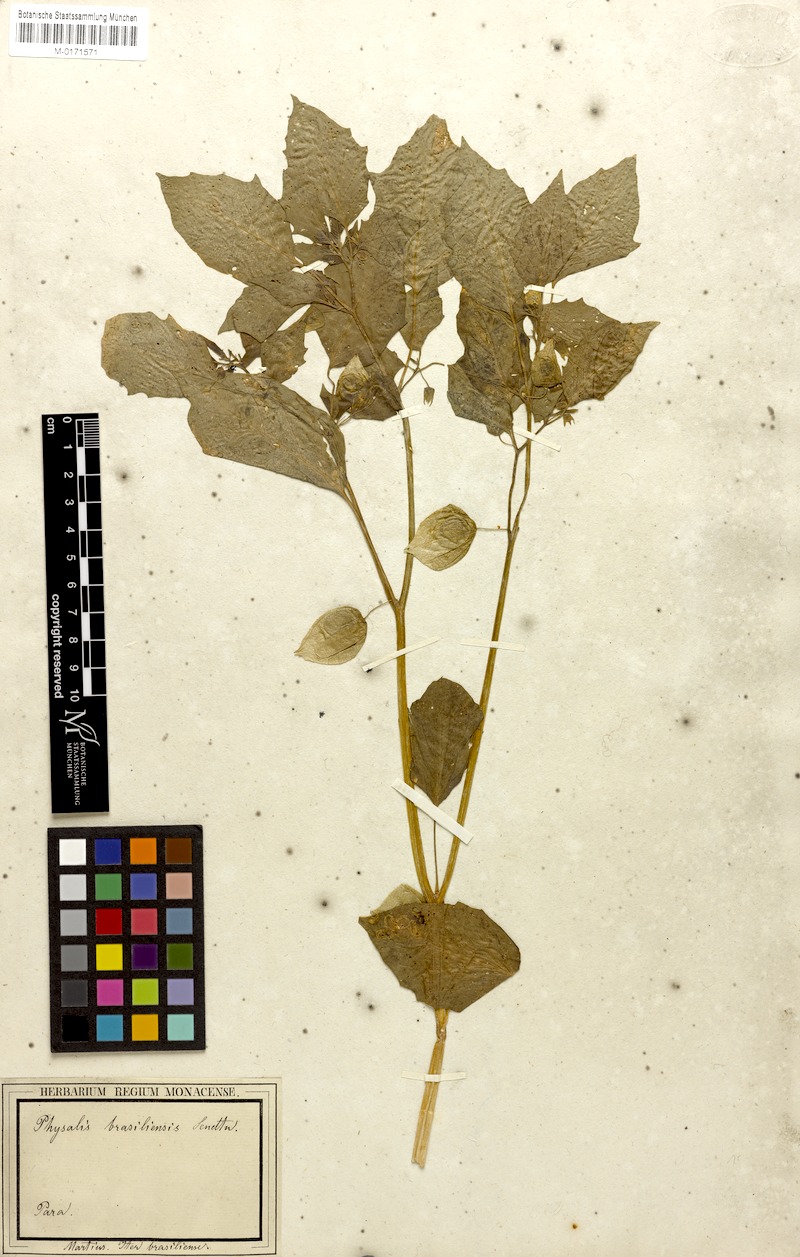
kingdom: Plantae
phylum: Tracheophyta
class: Magnoliopsida
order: Solanales
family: Solanaceae
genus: Physalis
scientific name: Physalis pubescens
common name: Downy ground-cherry
